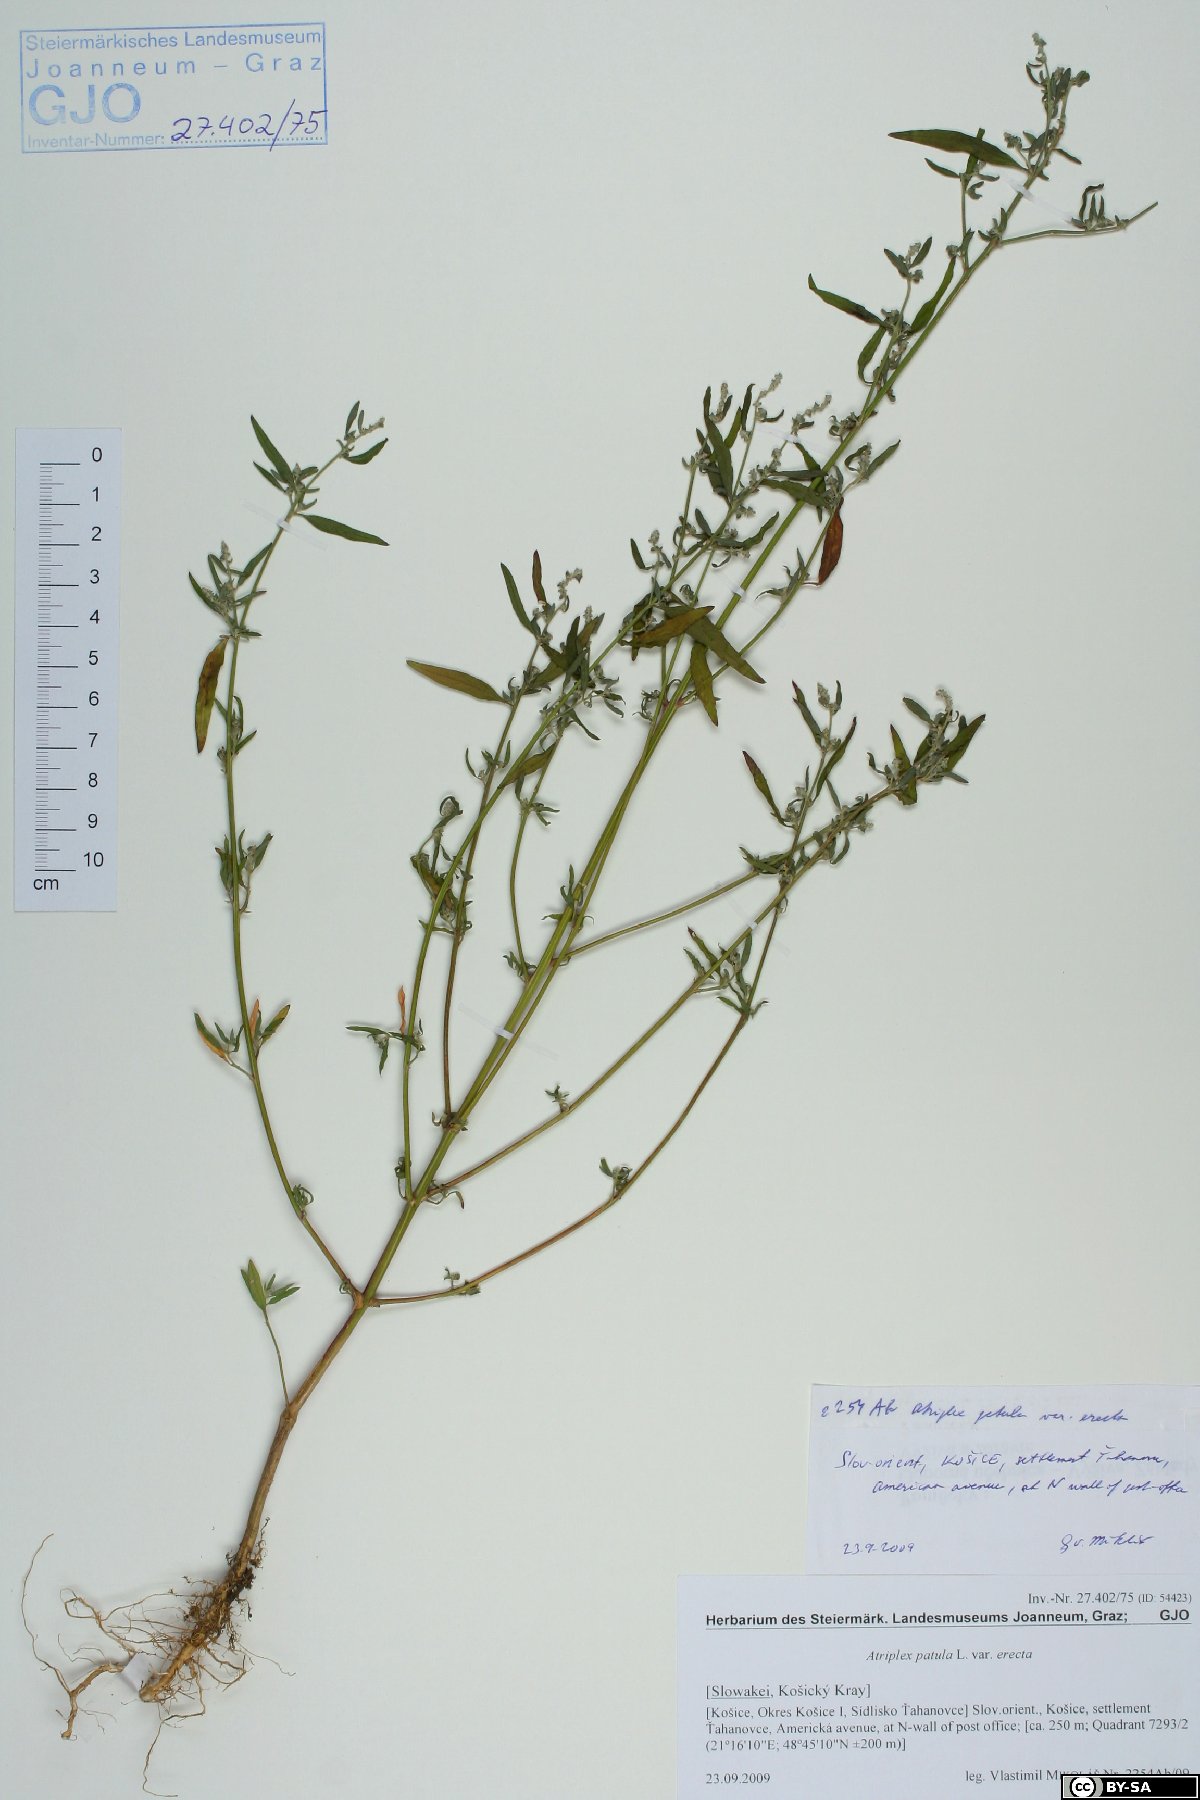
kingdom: Plantae
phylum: Tracheophyta
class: Magnoliopsida
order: Caryophyllales
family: Amaranthaceae
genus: Atriplex
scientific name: Atriplex patula
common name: Common orache
